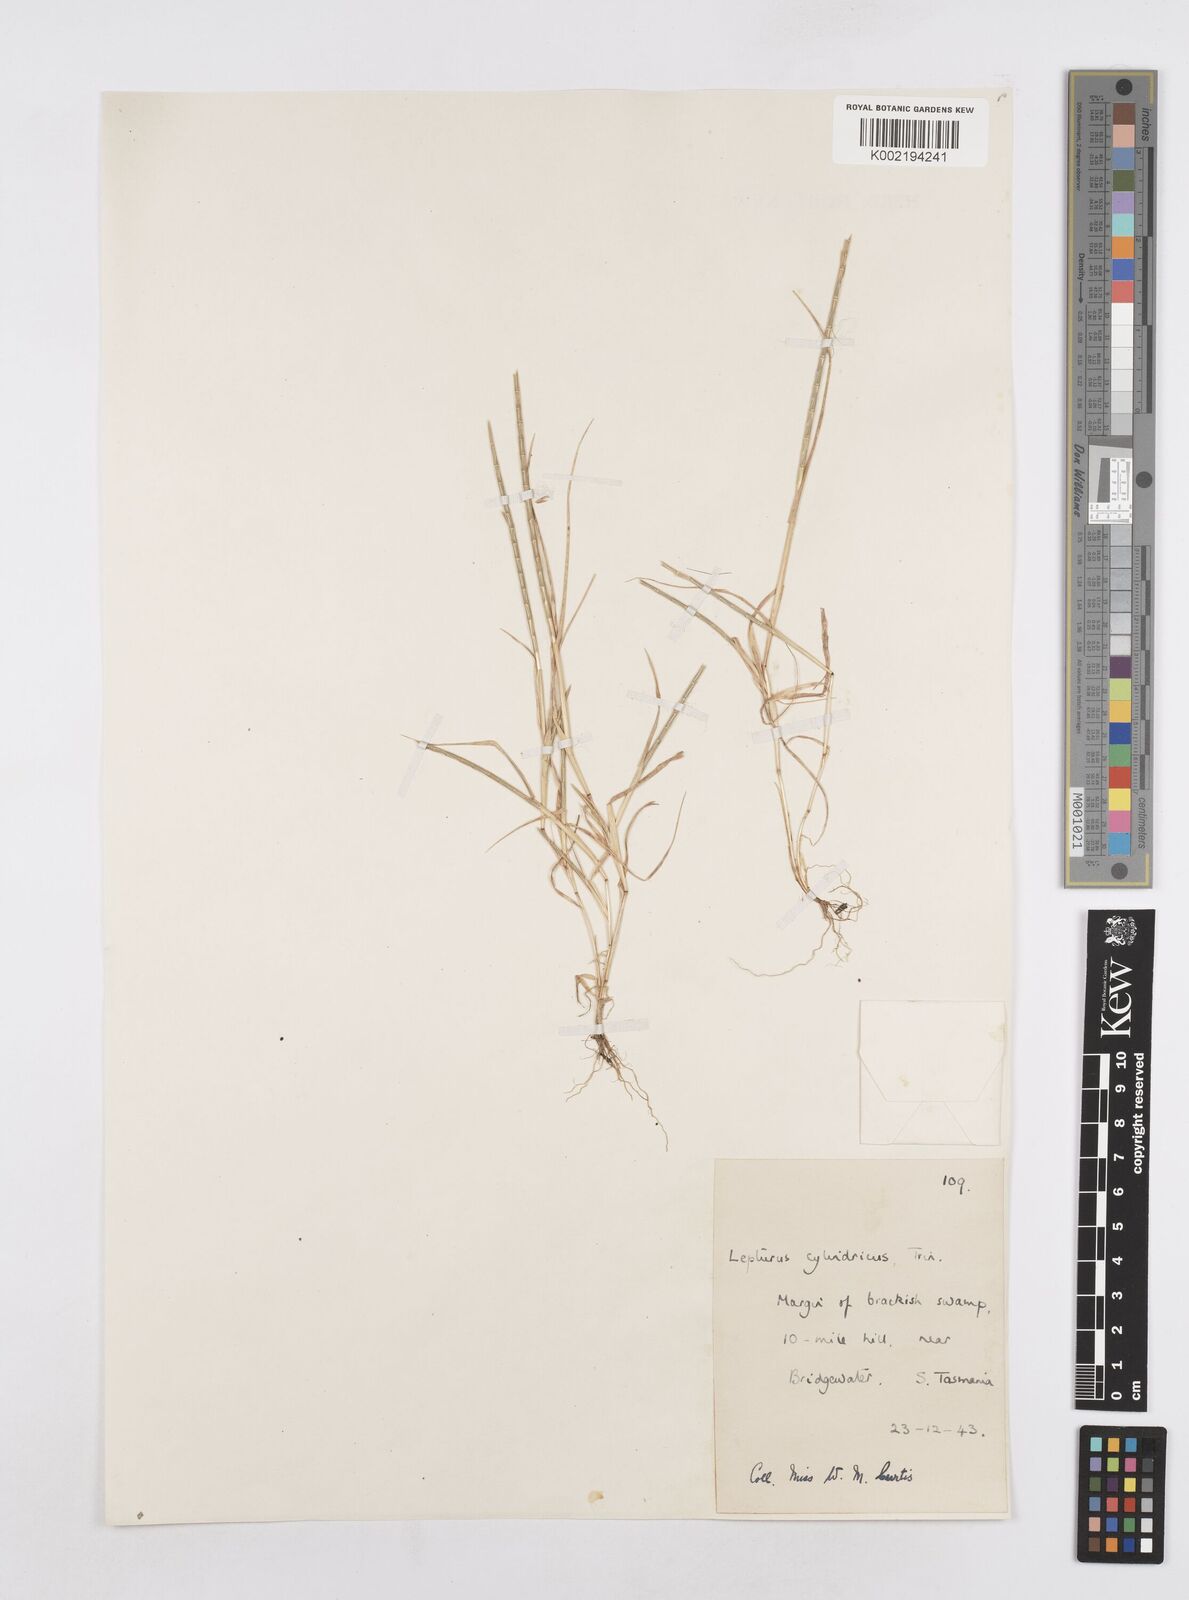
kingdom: Plantae
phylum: Tracheophyta
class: Liliopsida
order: Poales
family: Poaceae
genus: Parapholis
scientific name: Parapholis cylindrica
